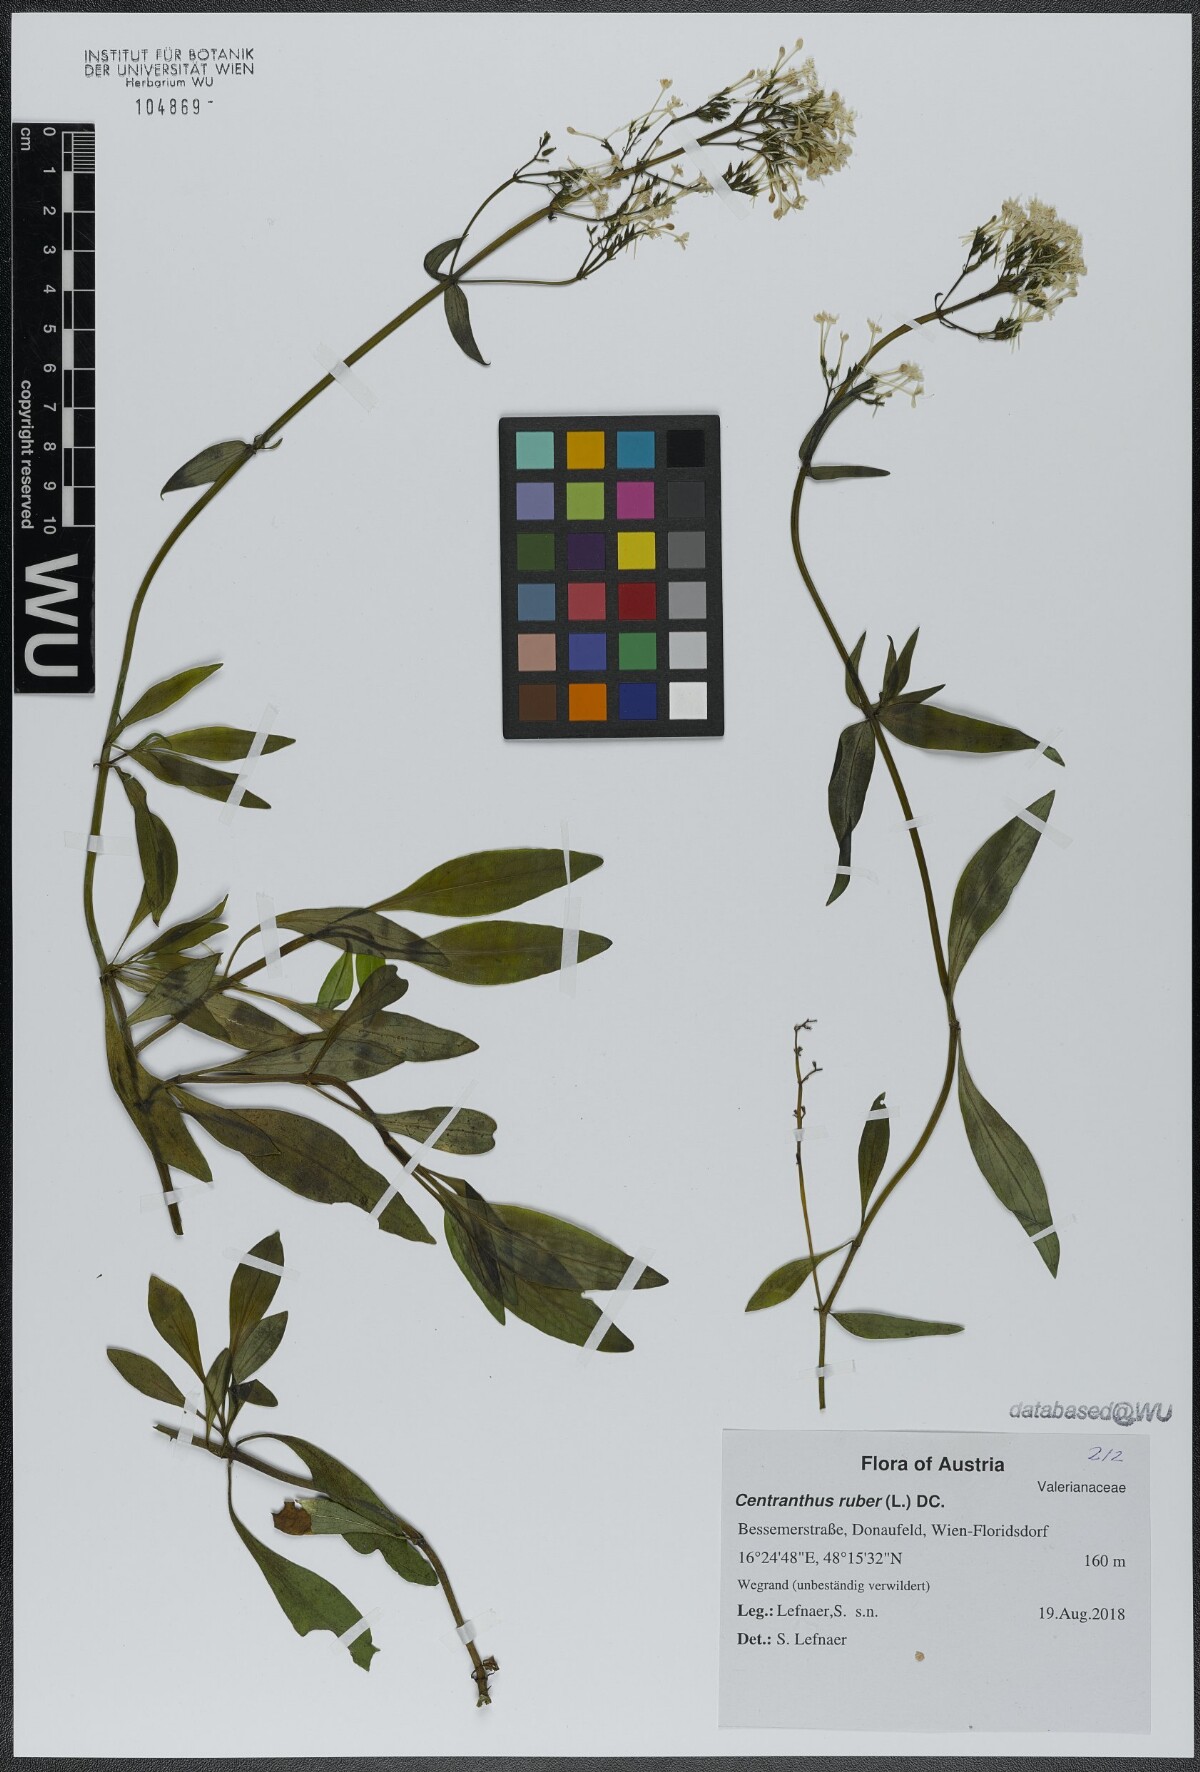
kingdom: Plantae
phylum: Tracheophyta
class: Magnoliopsida
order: Dipsacales
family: Caprifoliaceae
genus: Centranthus
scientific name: Centranthus ruber
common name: Red valerian
